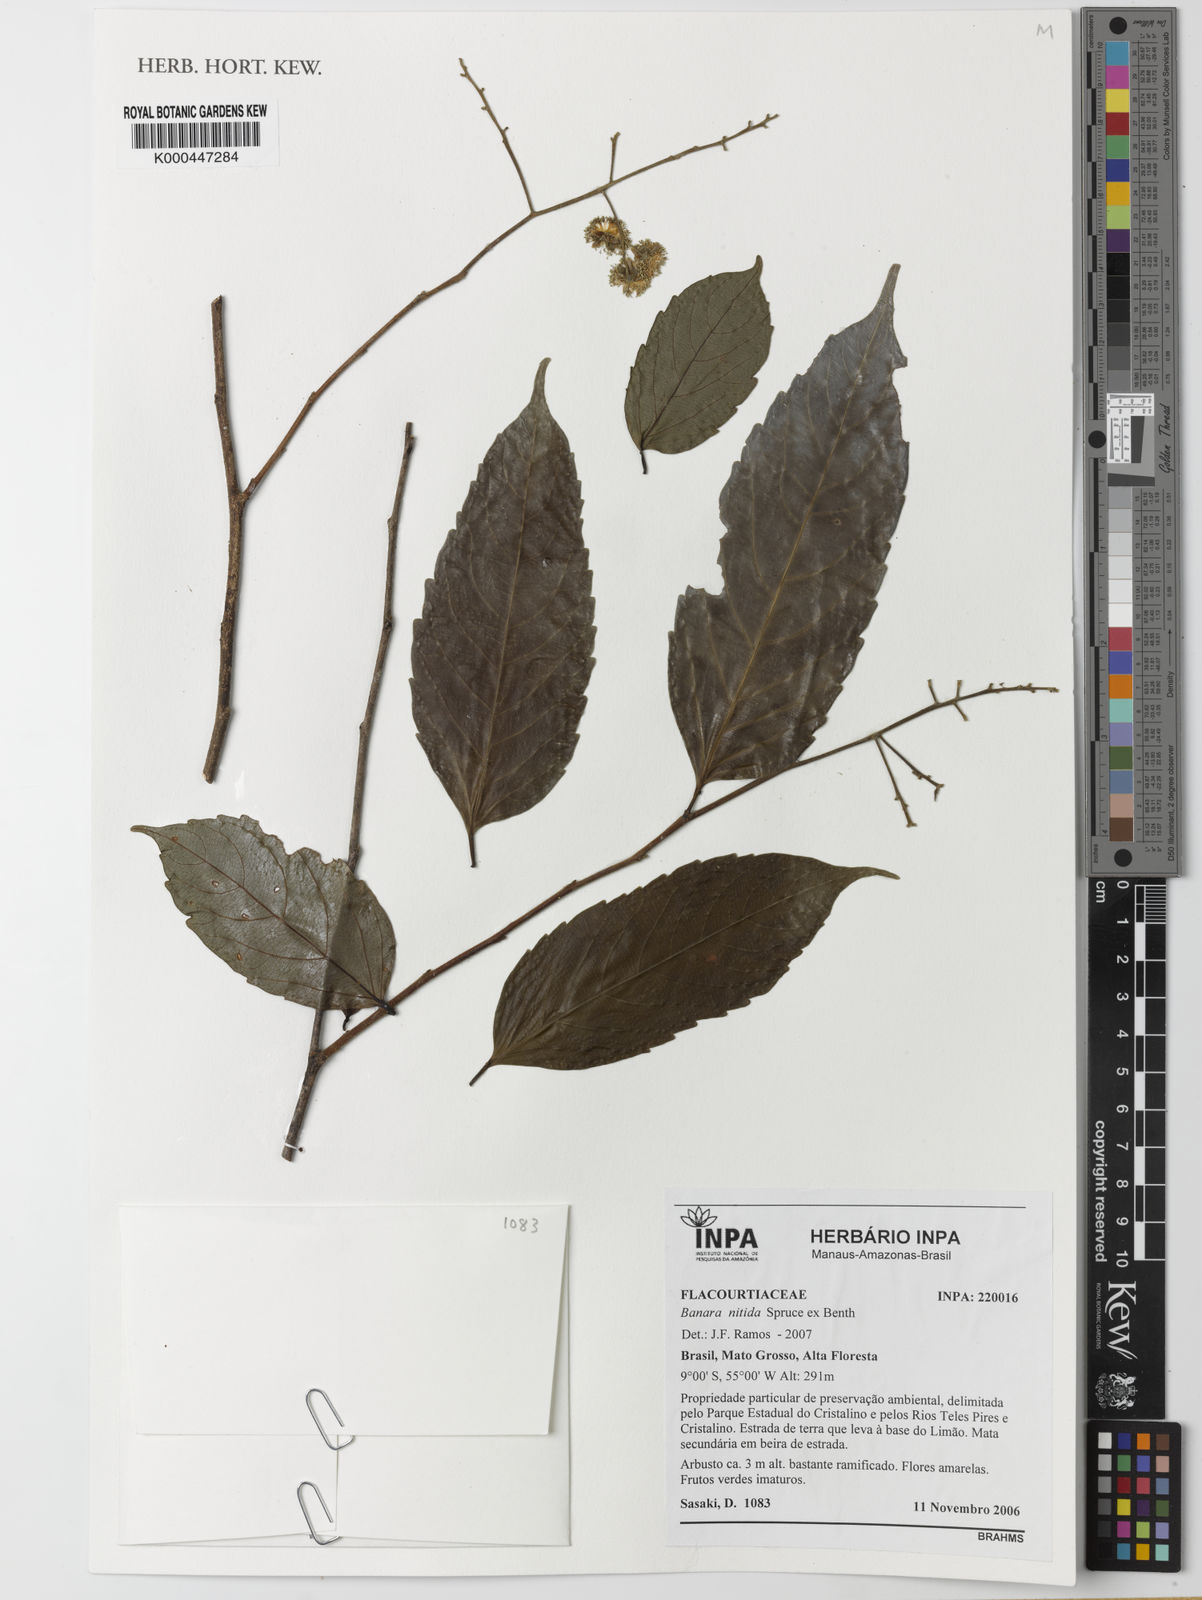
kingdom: Plantae
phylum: Tracheophyta
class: Magnoliopsida
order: Malpighiales
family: Salicaceae
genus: Banara
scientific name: Banara nitida
